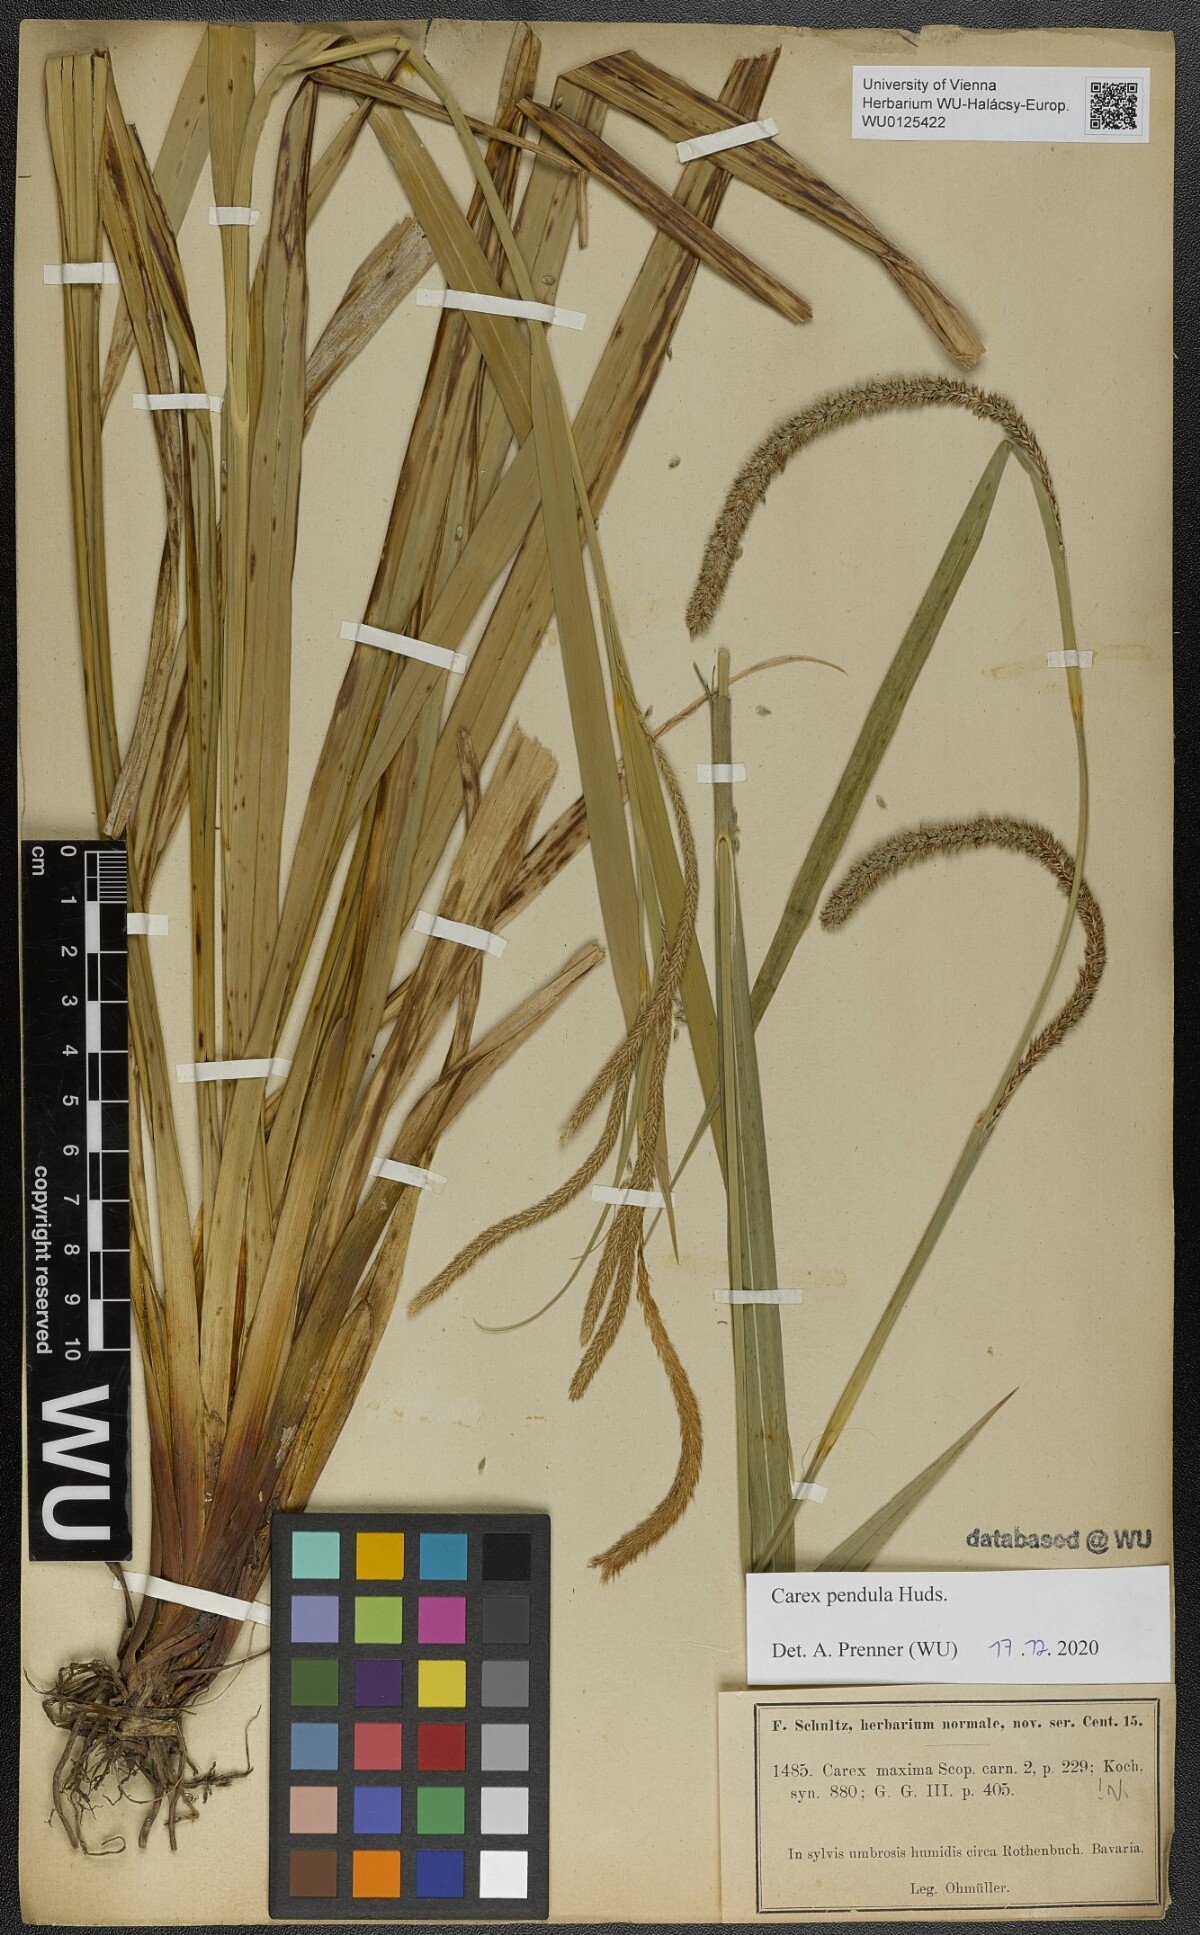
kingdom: Plantae
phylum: Tracheophyta
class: Liliopsida
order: Poales
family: Cyperaceae
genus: Carex
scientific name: Carex pendula
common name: Pendulous sedge
